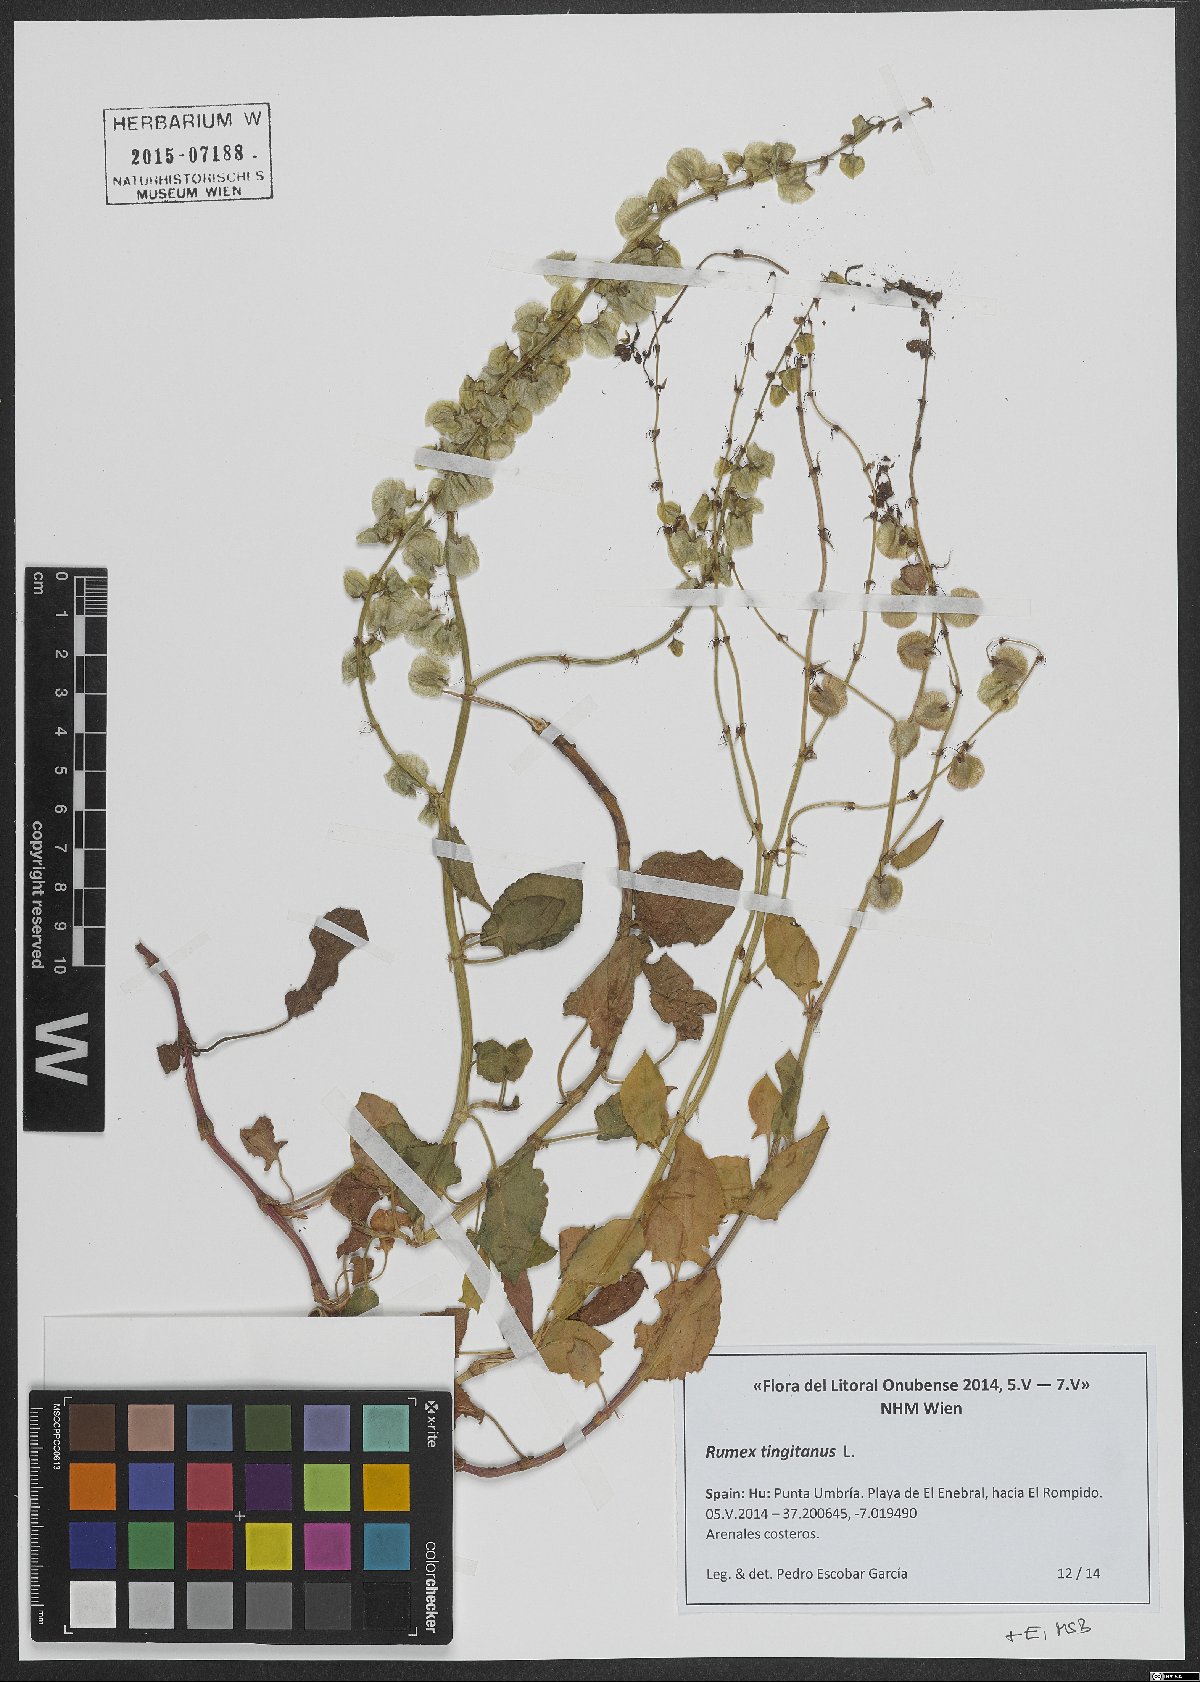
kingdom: Plantae
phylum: Tracheophyta
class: Magnoliopsida
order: Caryophyllales
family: Polygonaceae
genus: Rumex
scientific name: Rumex roseus
